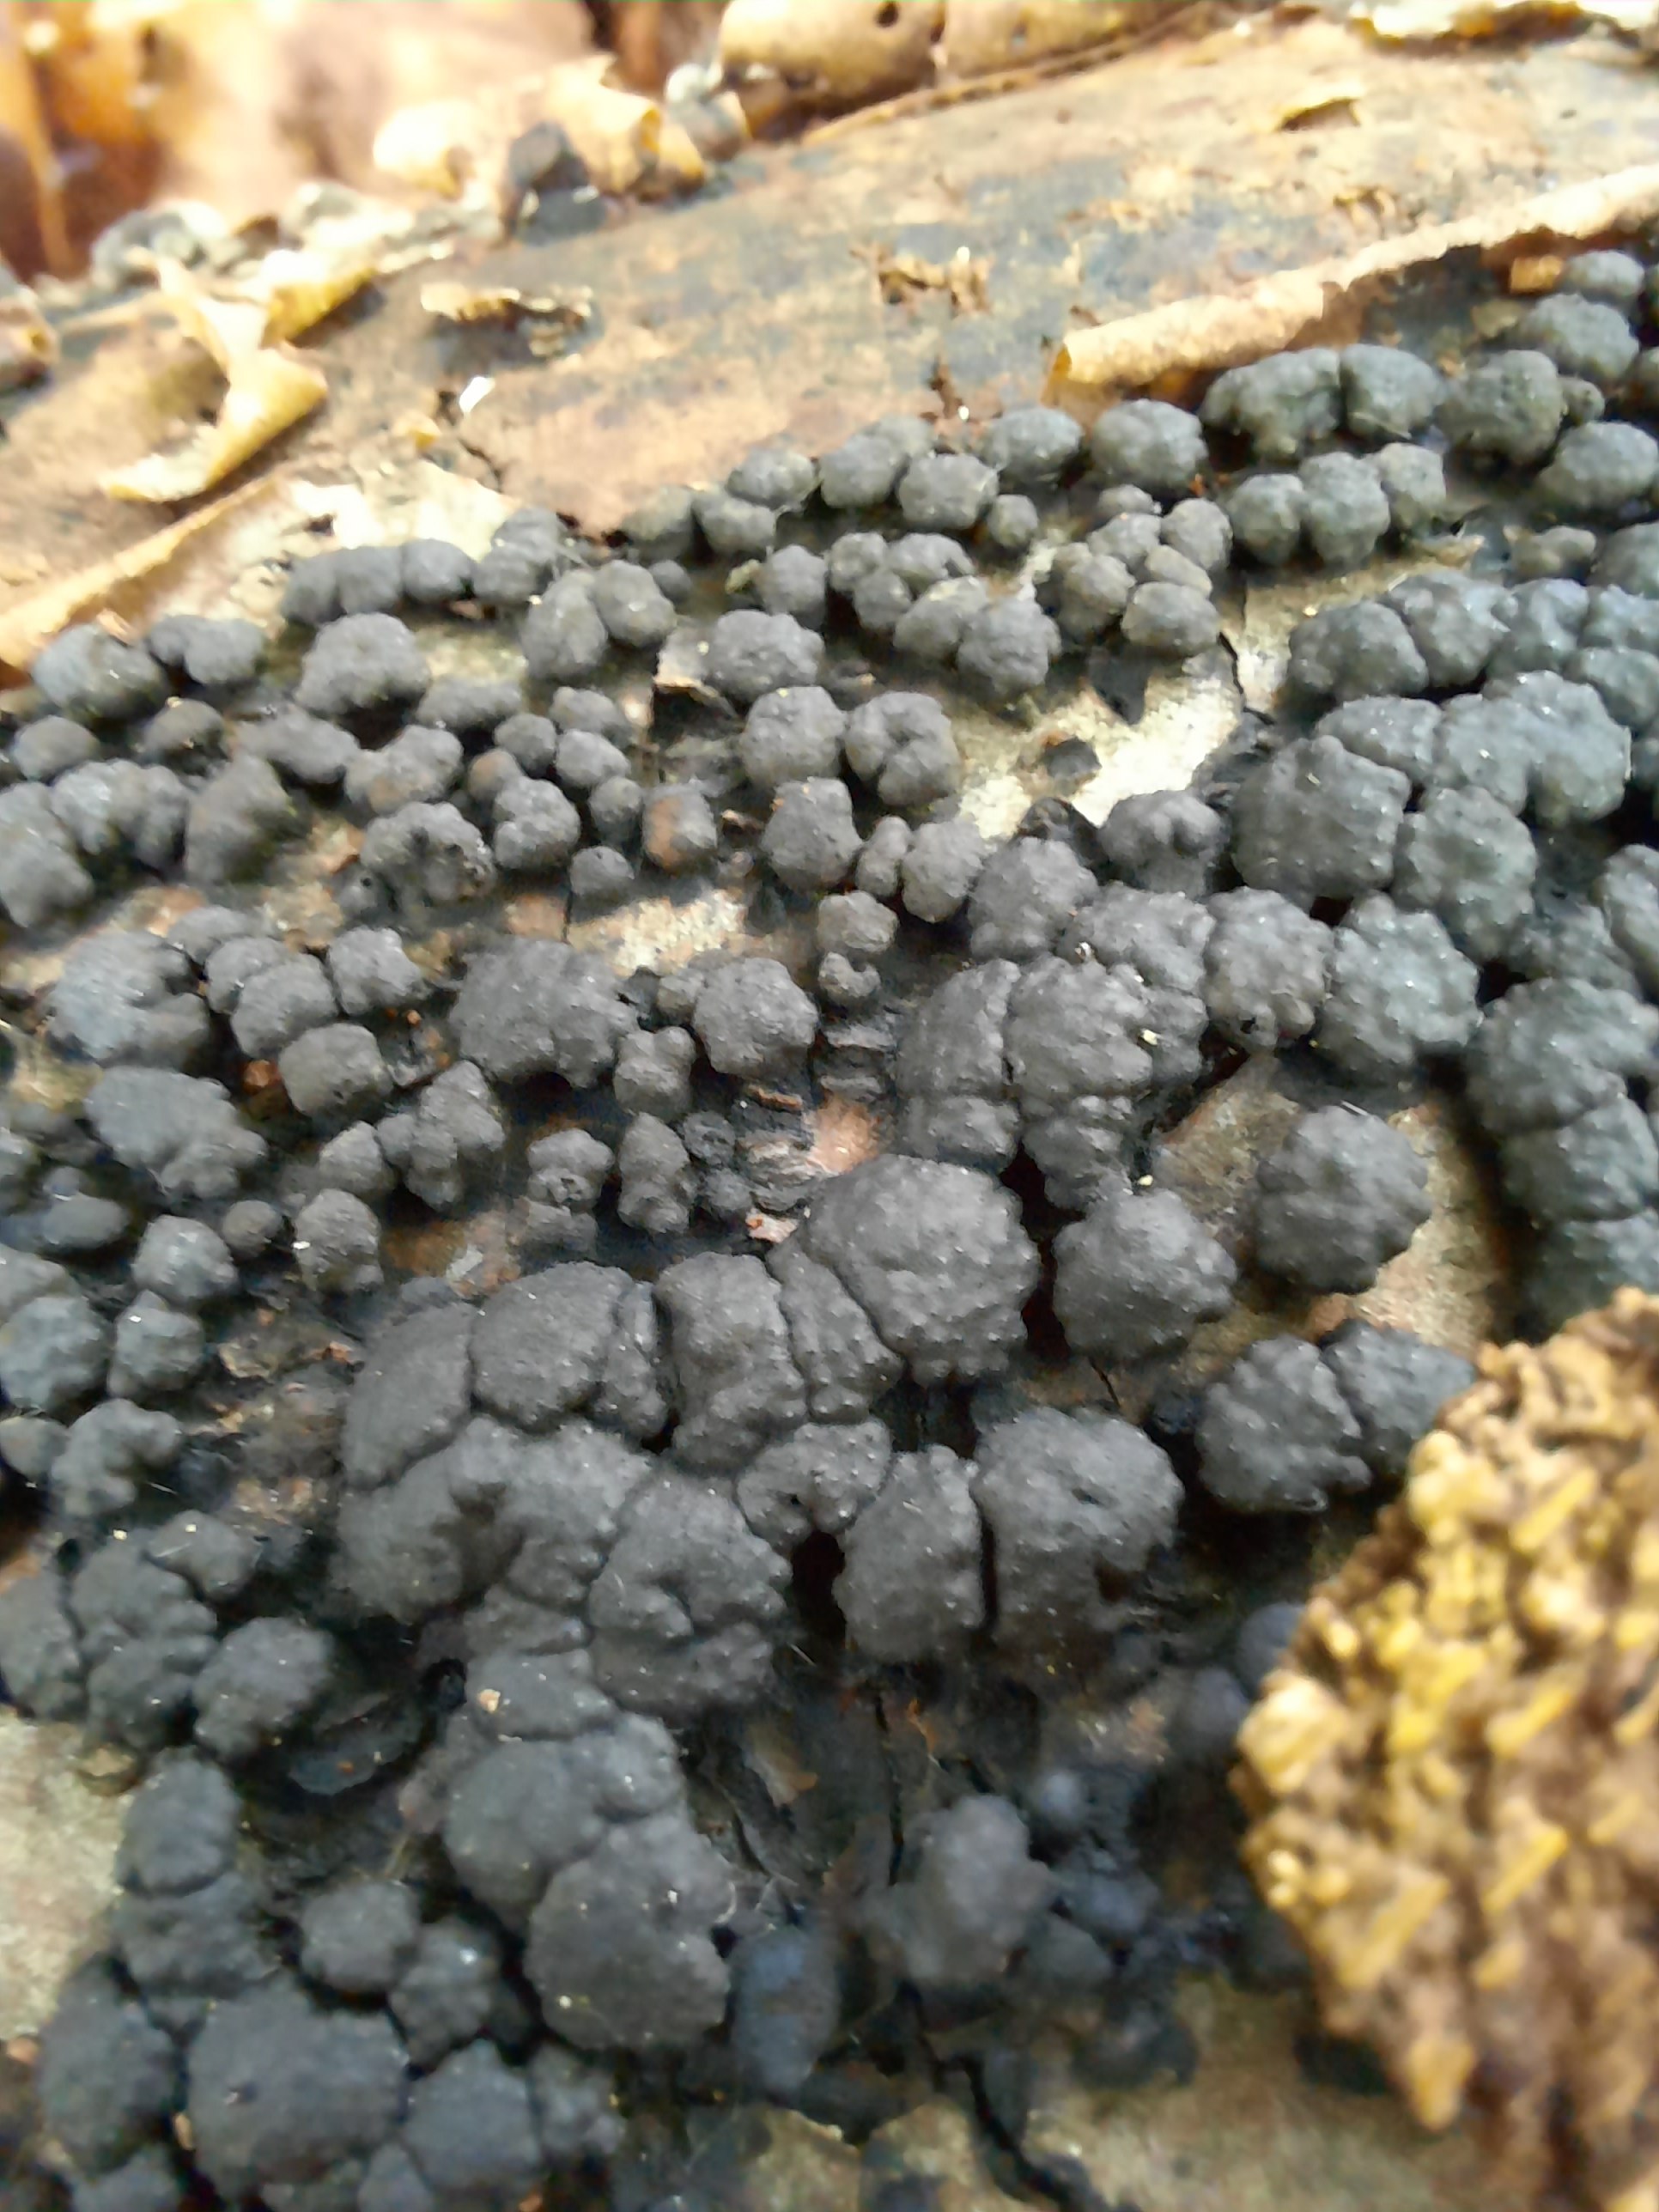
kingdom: Fungi
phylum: Ascomycota
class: Sordariomycetes
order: Xylariales
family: Hypoxylaceae
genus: Jackrogersella
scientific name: Jackrogersella cohaerens
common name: sammenflydende kulbær
